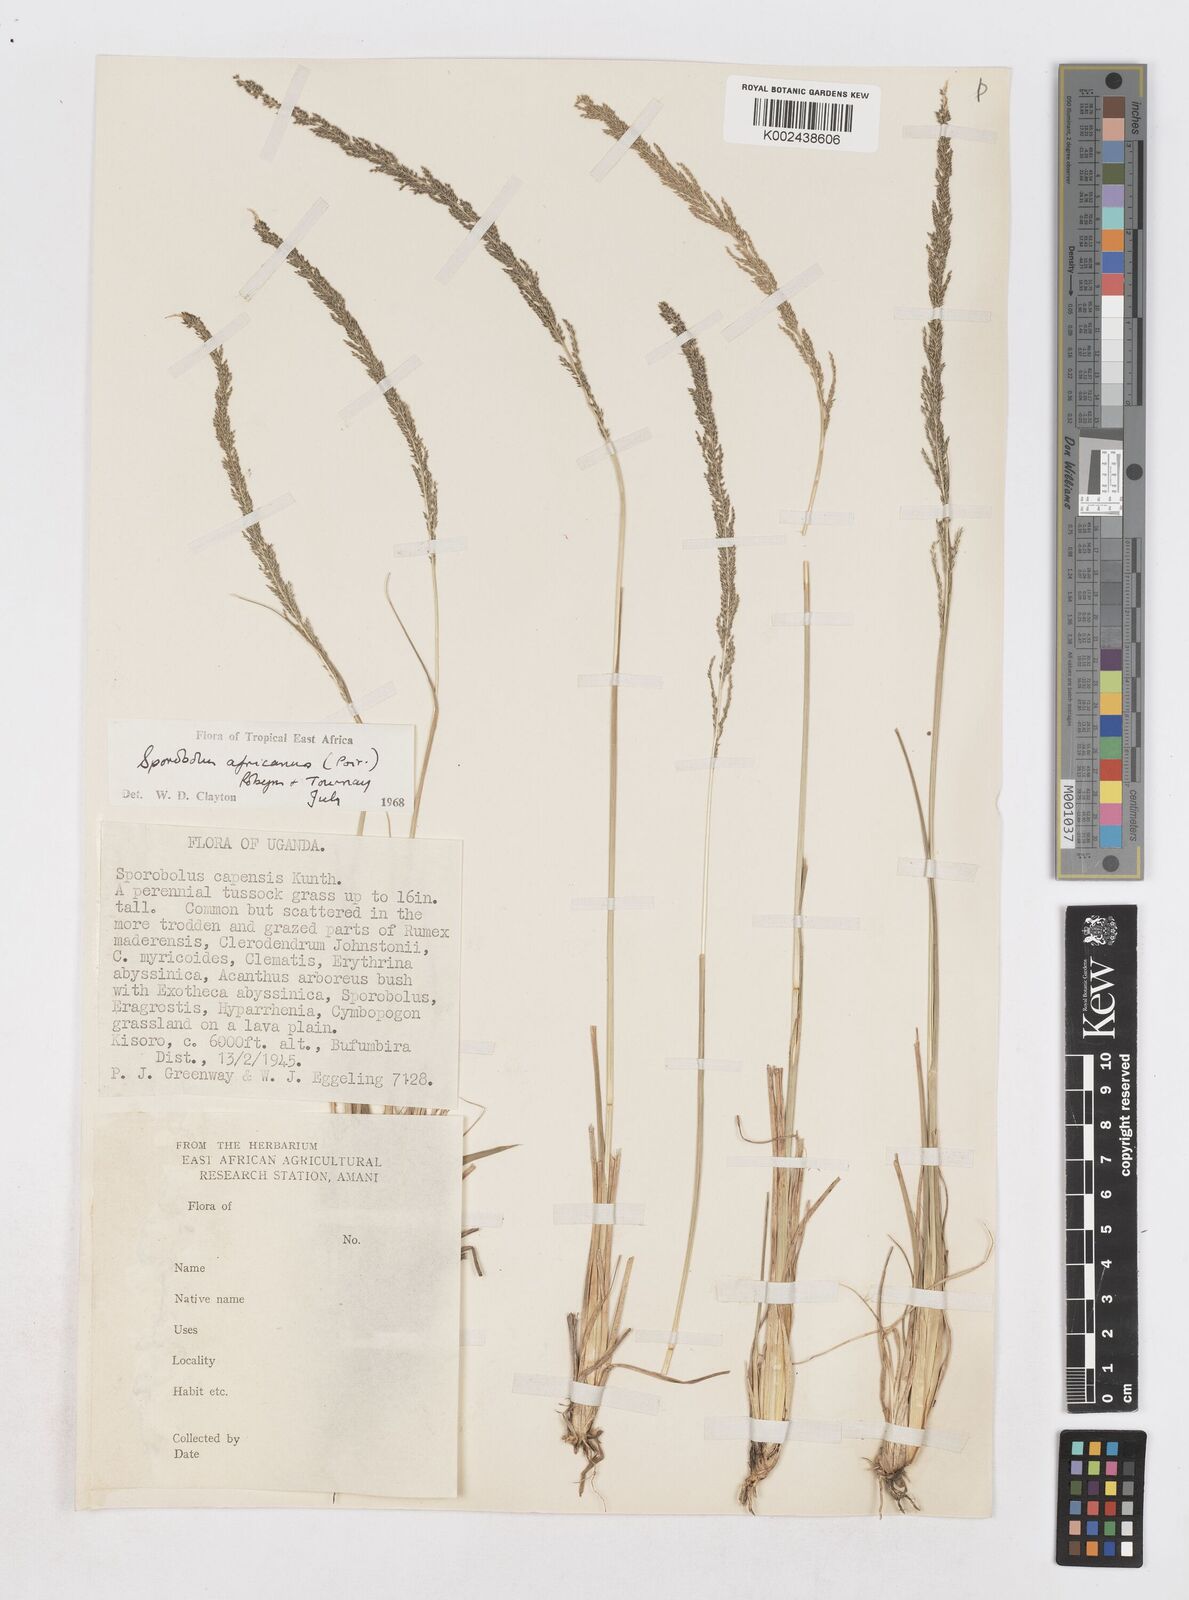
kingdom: Plantae
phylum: Tracheophyta
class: Liliopsida
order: Poales
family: Poaceae
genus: Sporobolus
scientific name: Sporobolus africanus
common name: African dropseed
